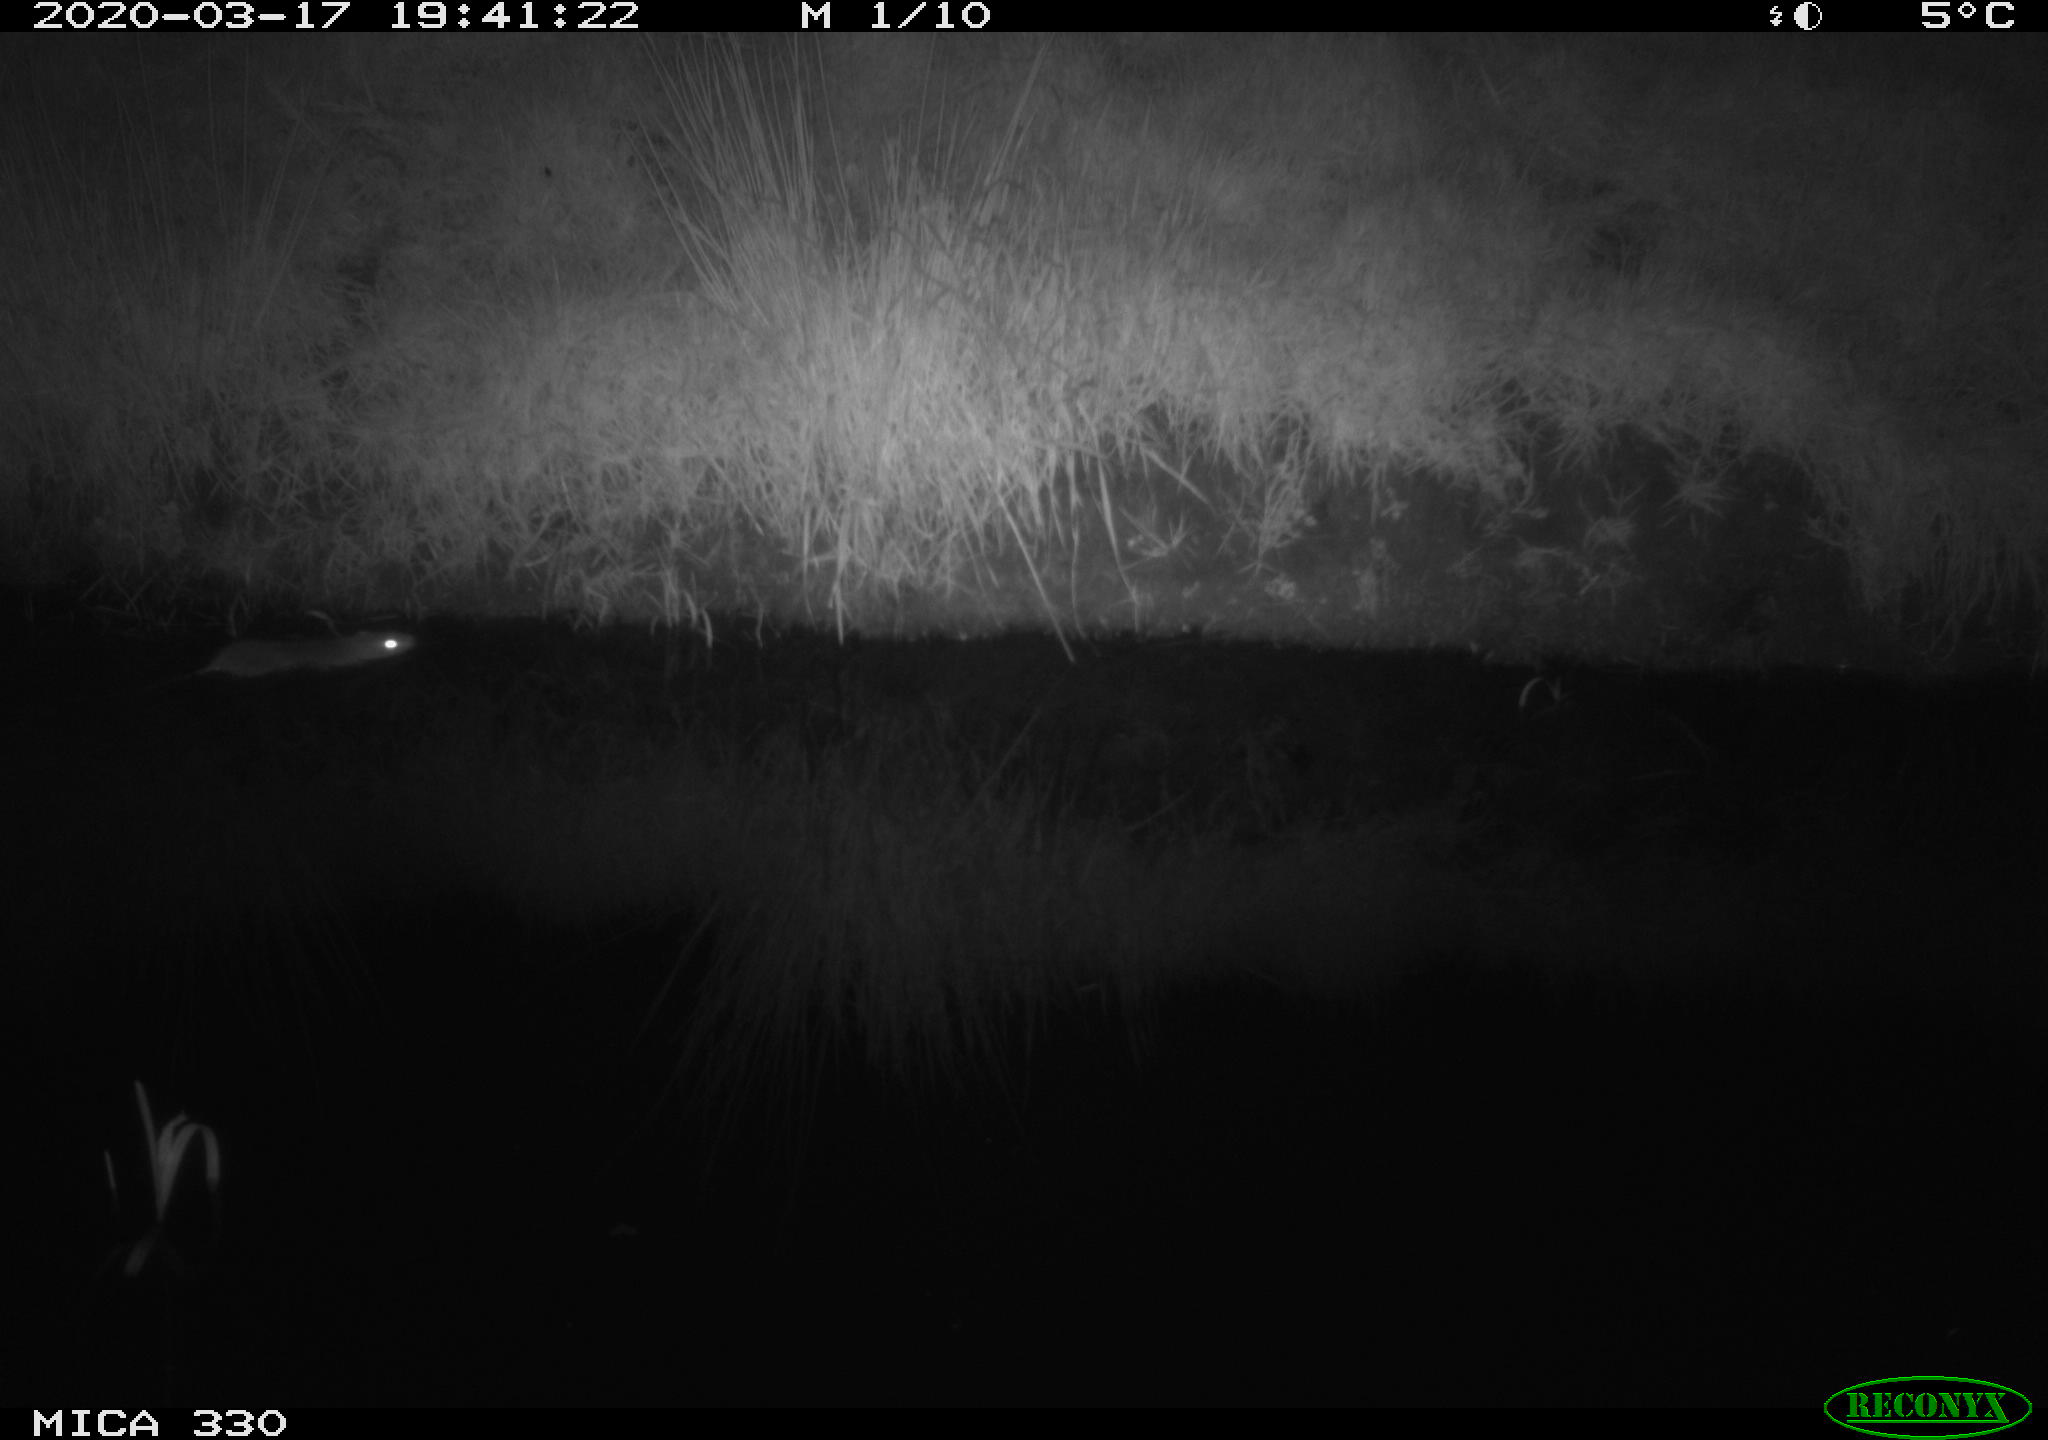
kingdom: Animalia
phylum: Chordata
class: Mammalia
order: Rodentia
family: Muridae
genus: Rattus
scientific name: Rattus norvegicus
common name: Brown rat
